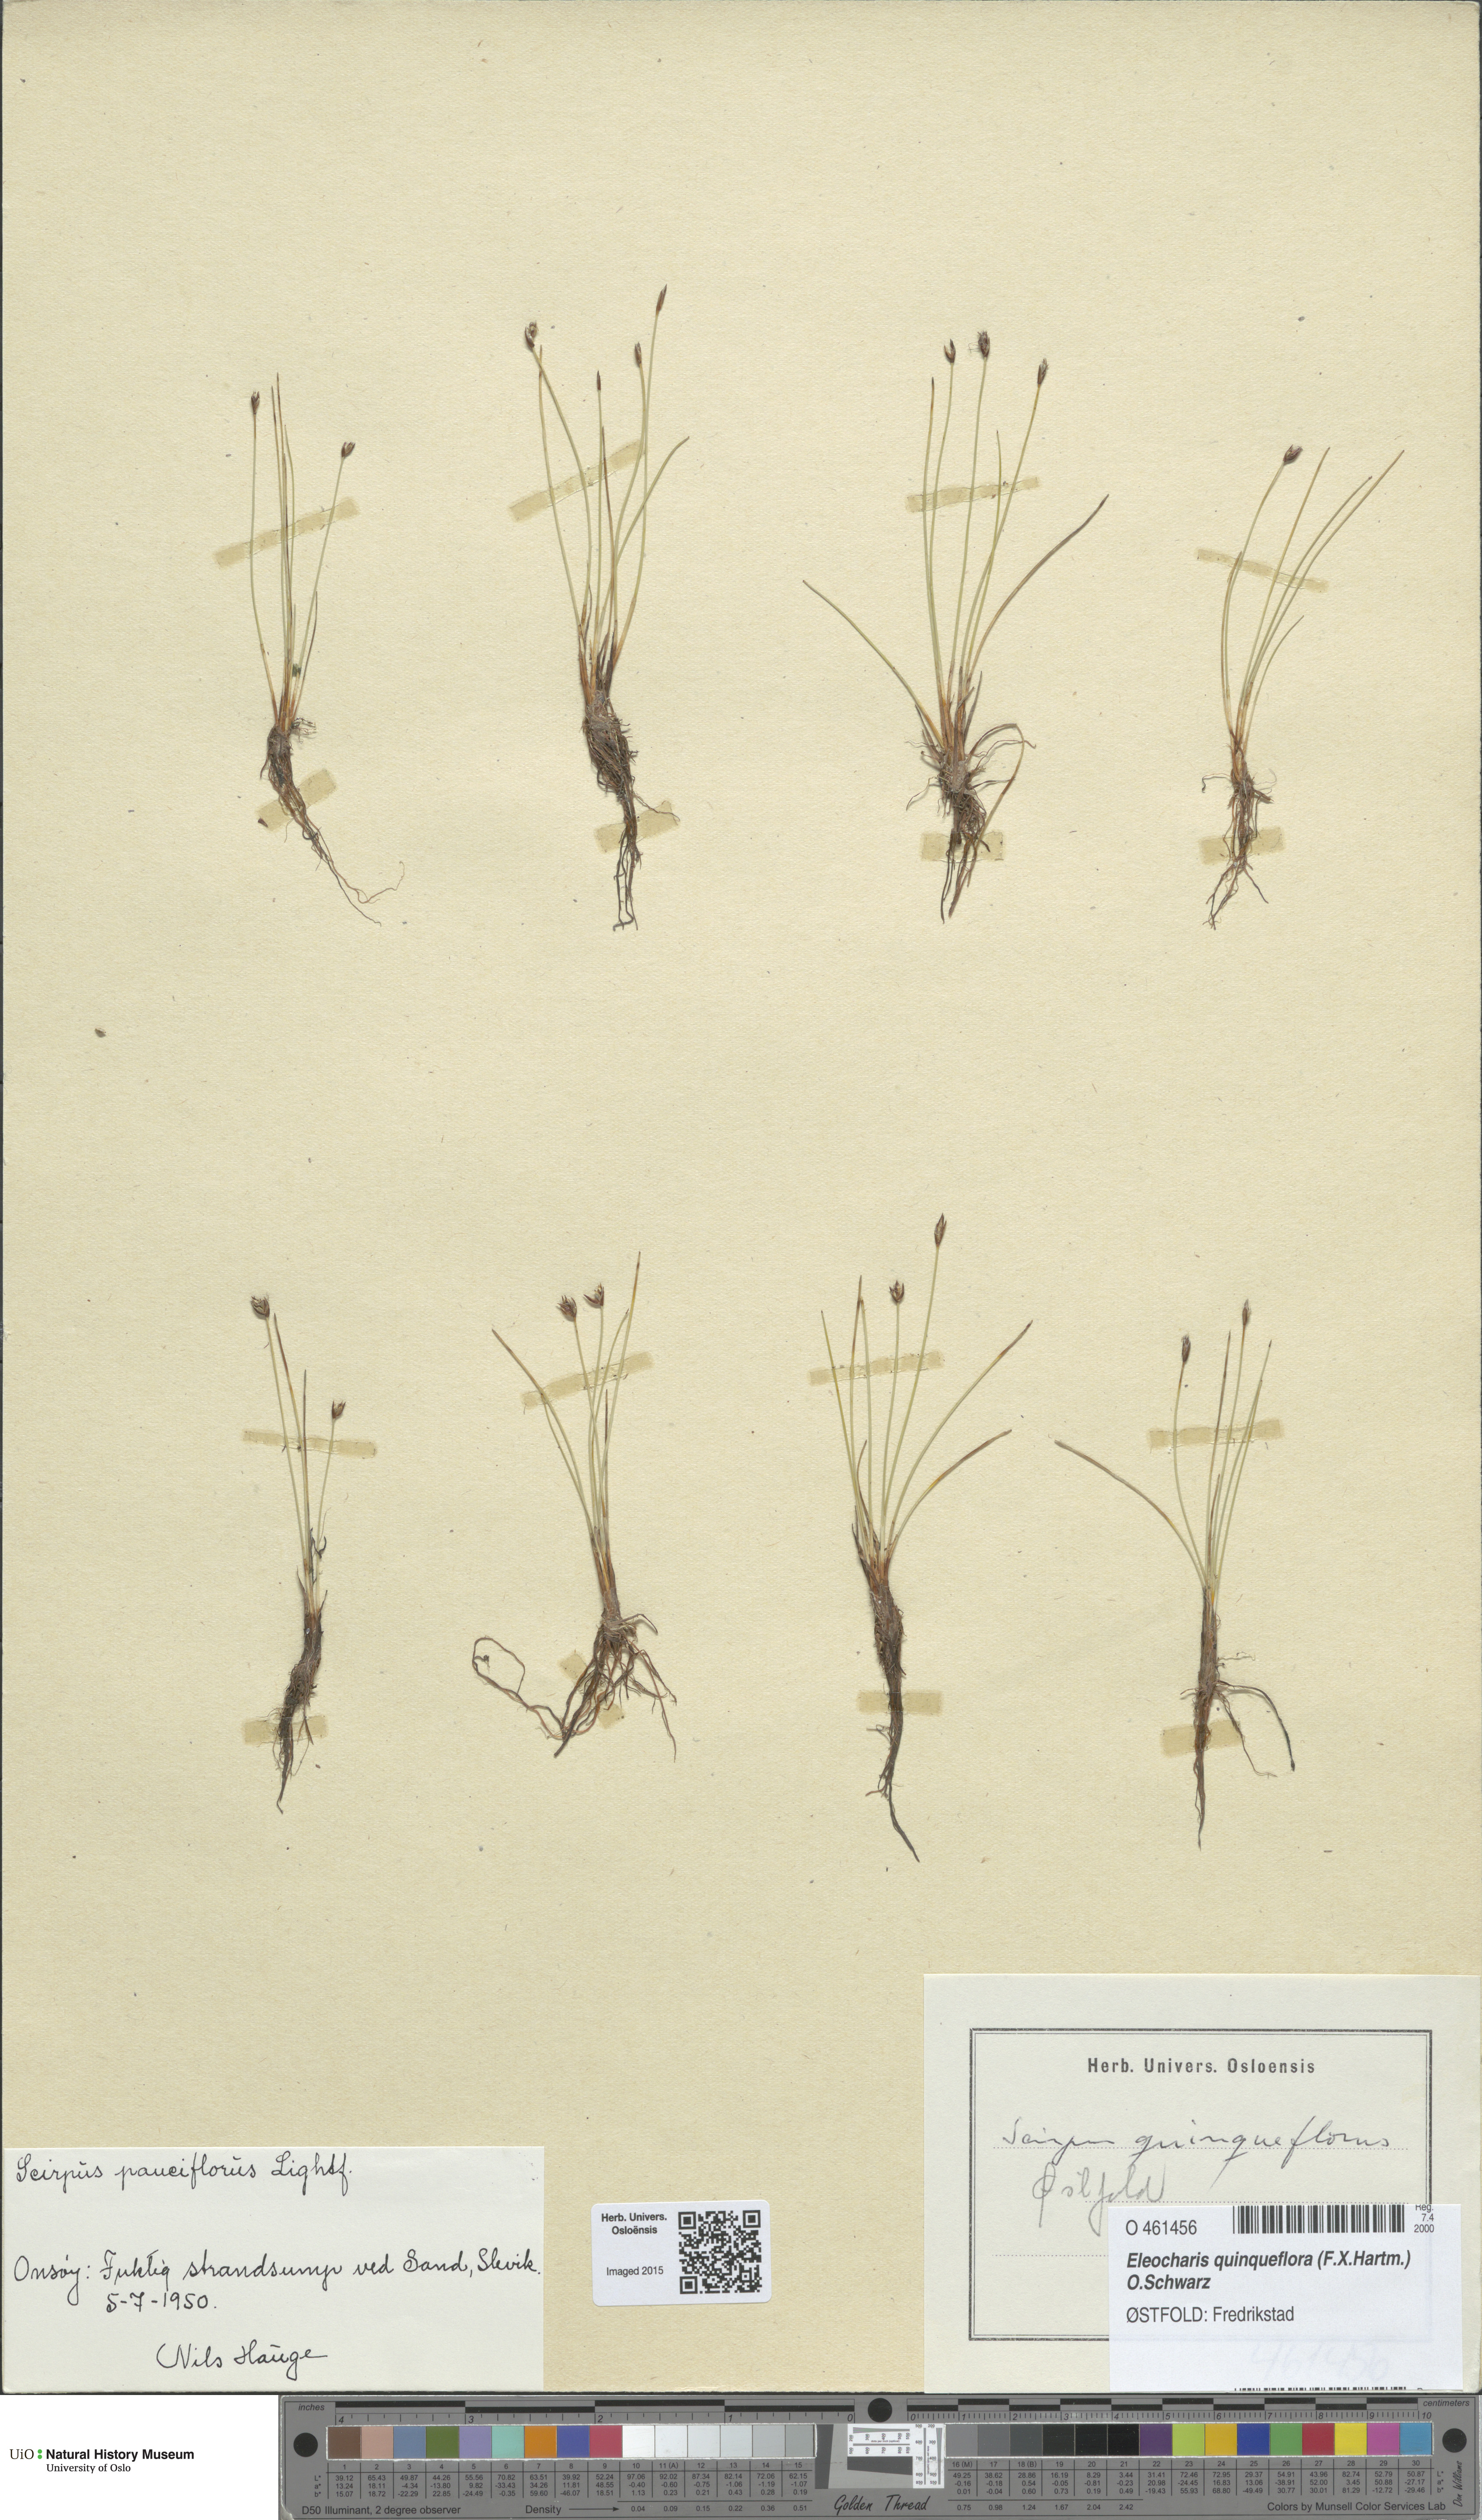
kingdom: Plantae
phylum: Tracheophyta
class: Liliopsida
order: Poales
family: Cyperaceae
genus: Eleocharis
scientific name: Eleocharis quinqueflora
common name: Few-flowered spike-rush
